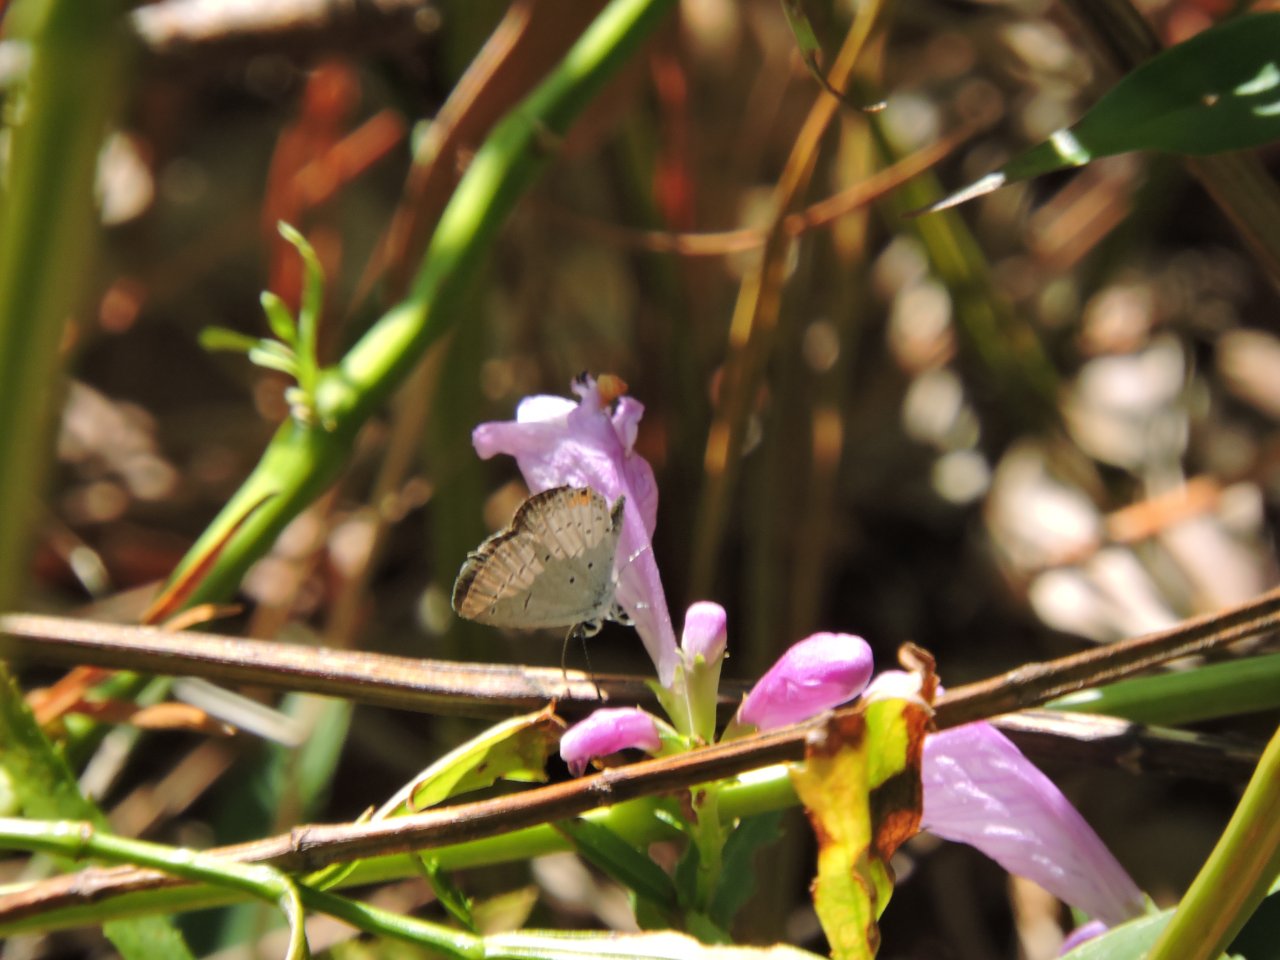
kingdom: Animalia
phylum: Arthropoda
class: Insecta
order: Lepidoptera
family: Lycaenidae
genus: Elkalyce
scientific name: Elkalyce comyntas
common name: Eastern Tailed-Blue
